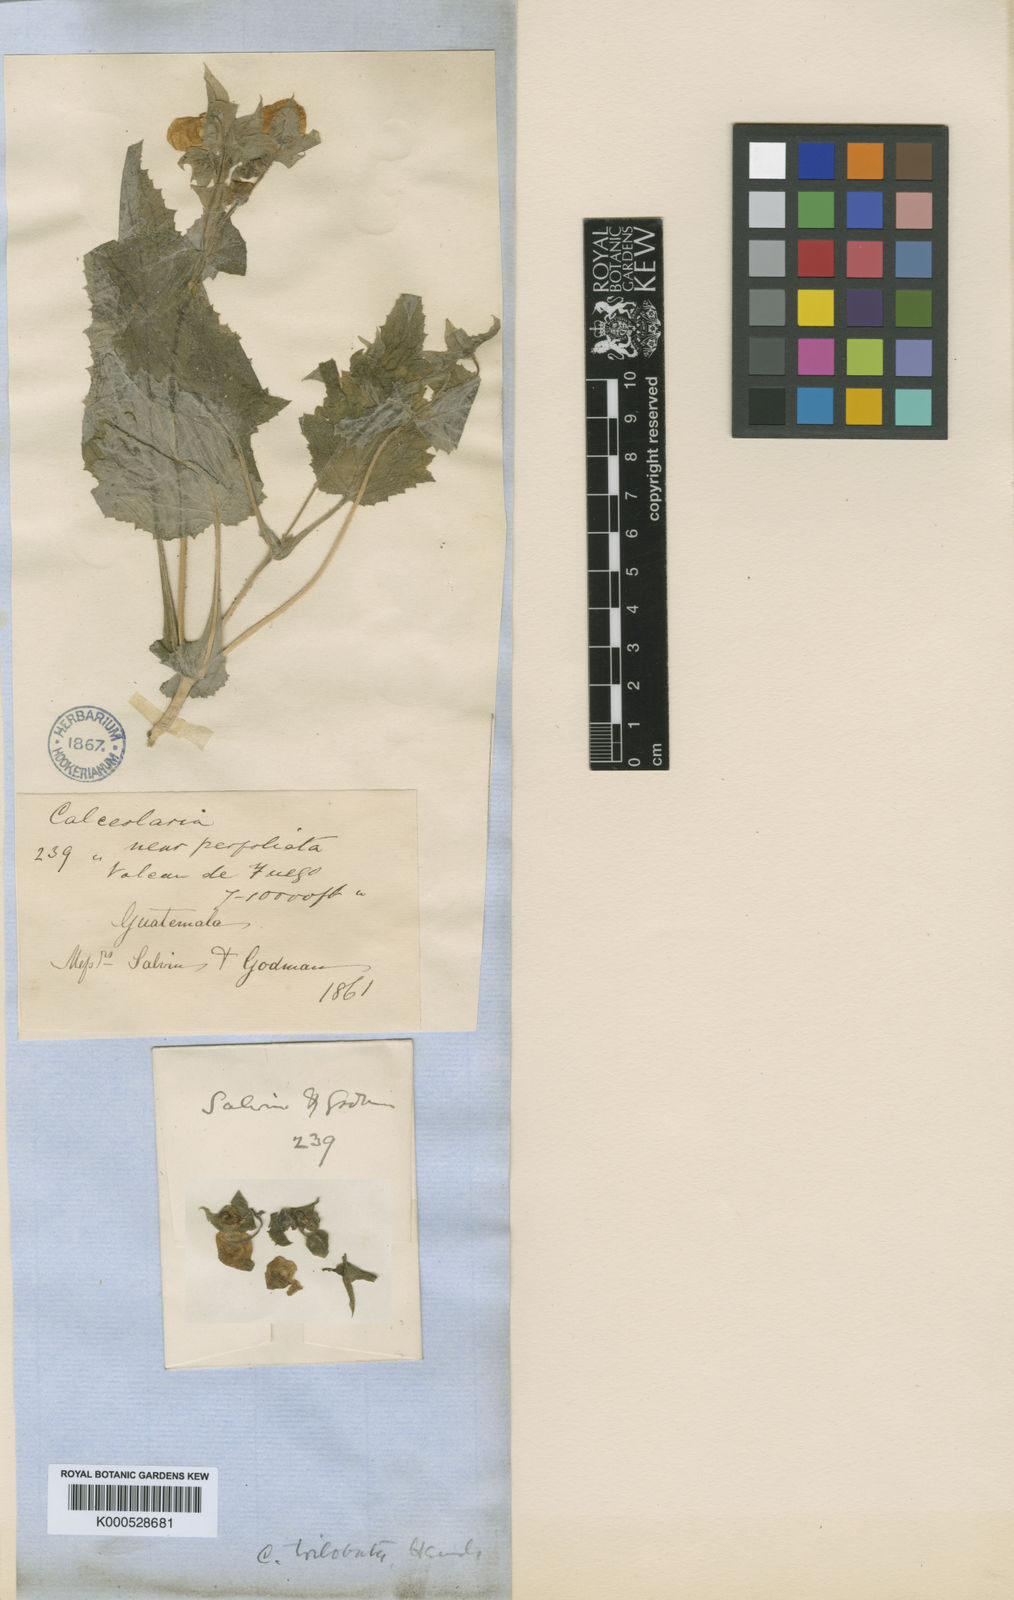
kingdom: Plantae
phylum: Tracheophyta
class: Magnoliopsida
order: Lamiales
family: Calceolariaceae
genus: Calceolaria
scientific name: Calceolaria trilobata
